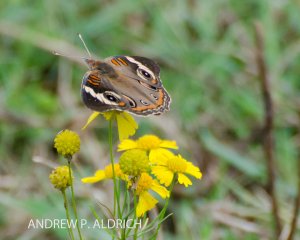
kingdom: Animalia
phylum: Arthropoda
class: Insecta
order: Lepidoptera
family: Nymphalidae
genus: Junonia
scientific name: Junonia coenia
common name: Common Buckeye
